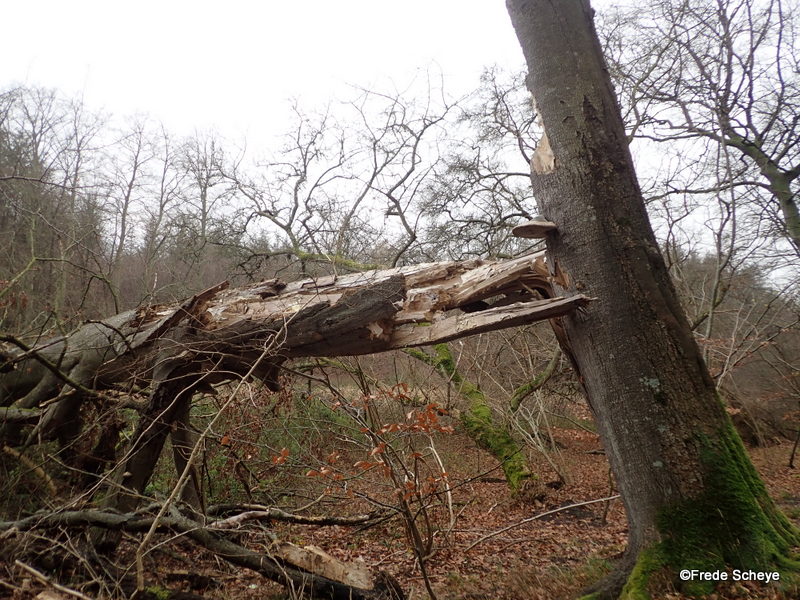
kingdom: Fungi
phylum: Basidiomycota
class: Agaricomycetes
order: Polyporales
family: Polyporaceae
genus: Fomes
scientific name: Fomes fomentarius
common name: tøndersvamp
